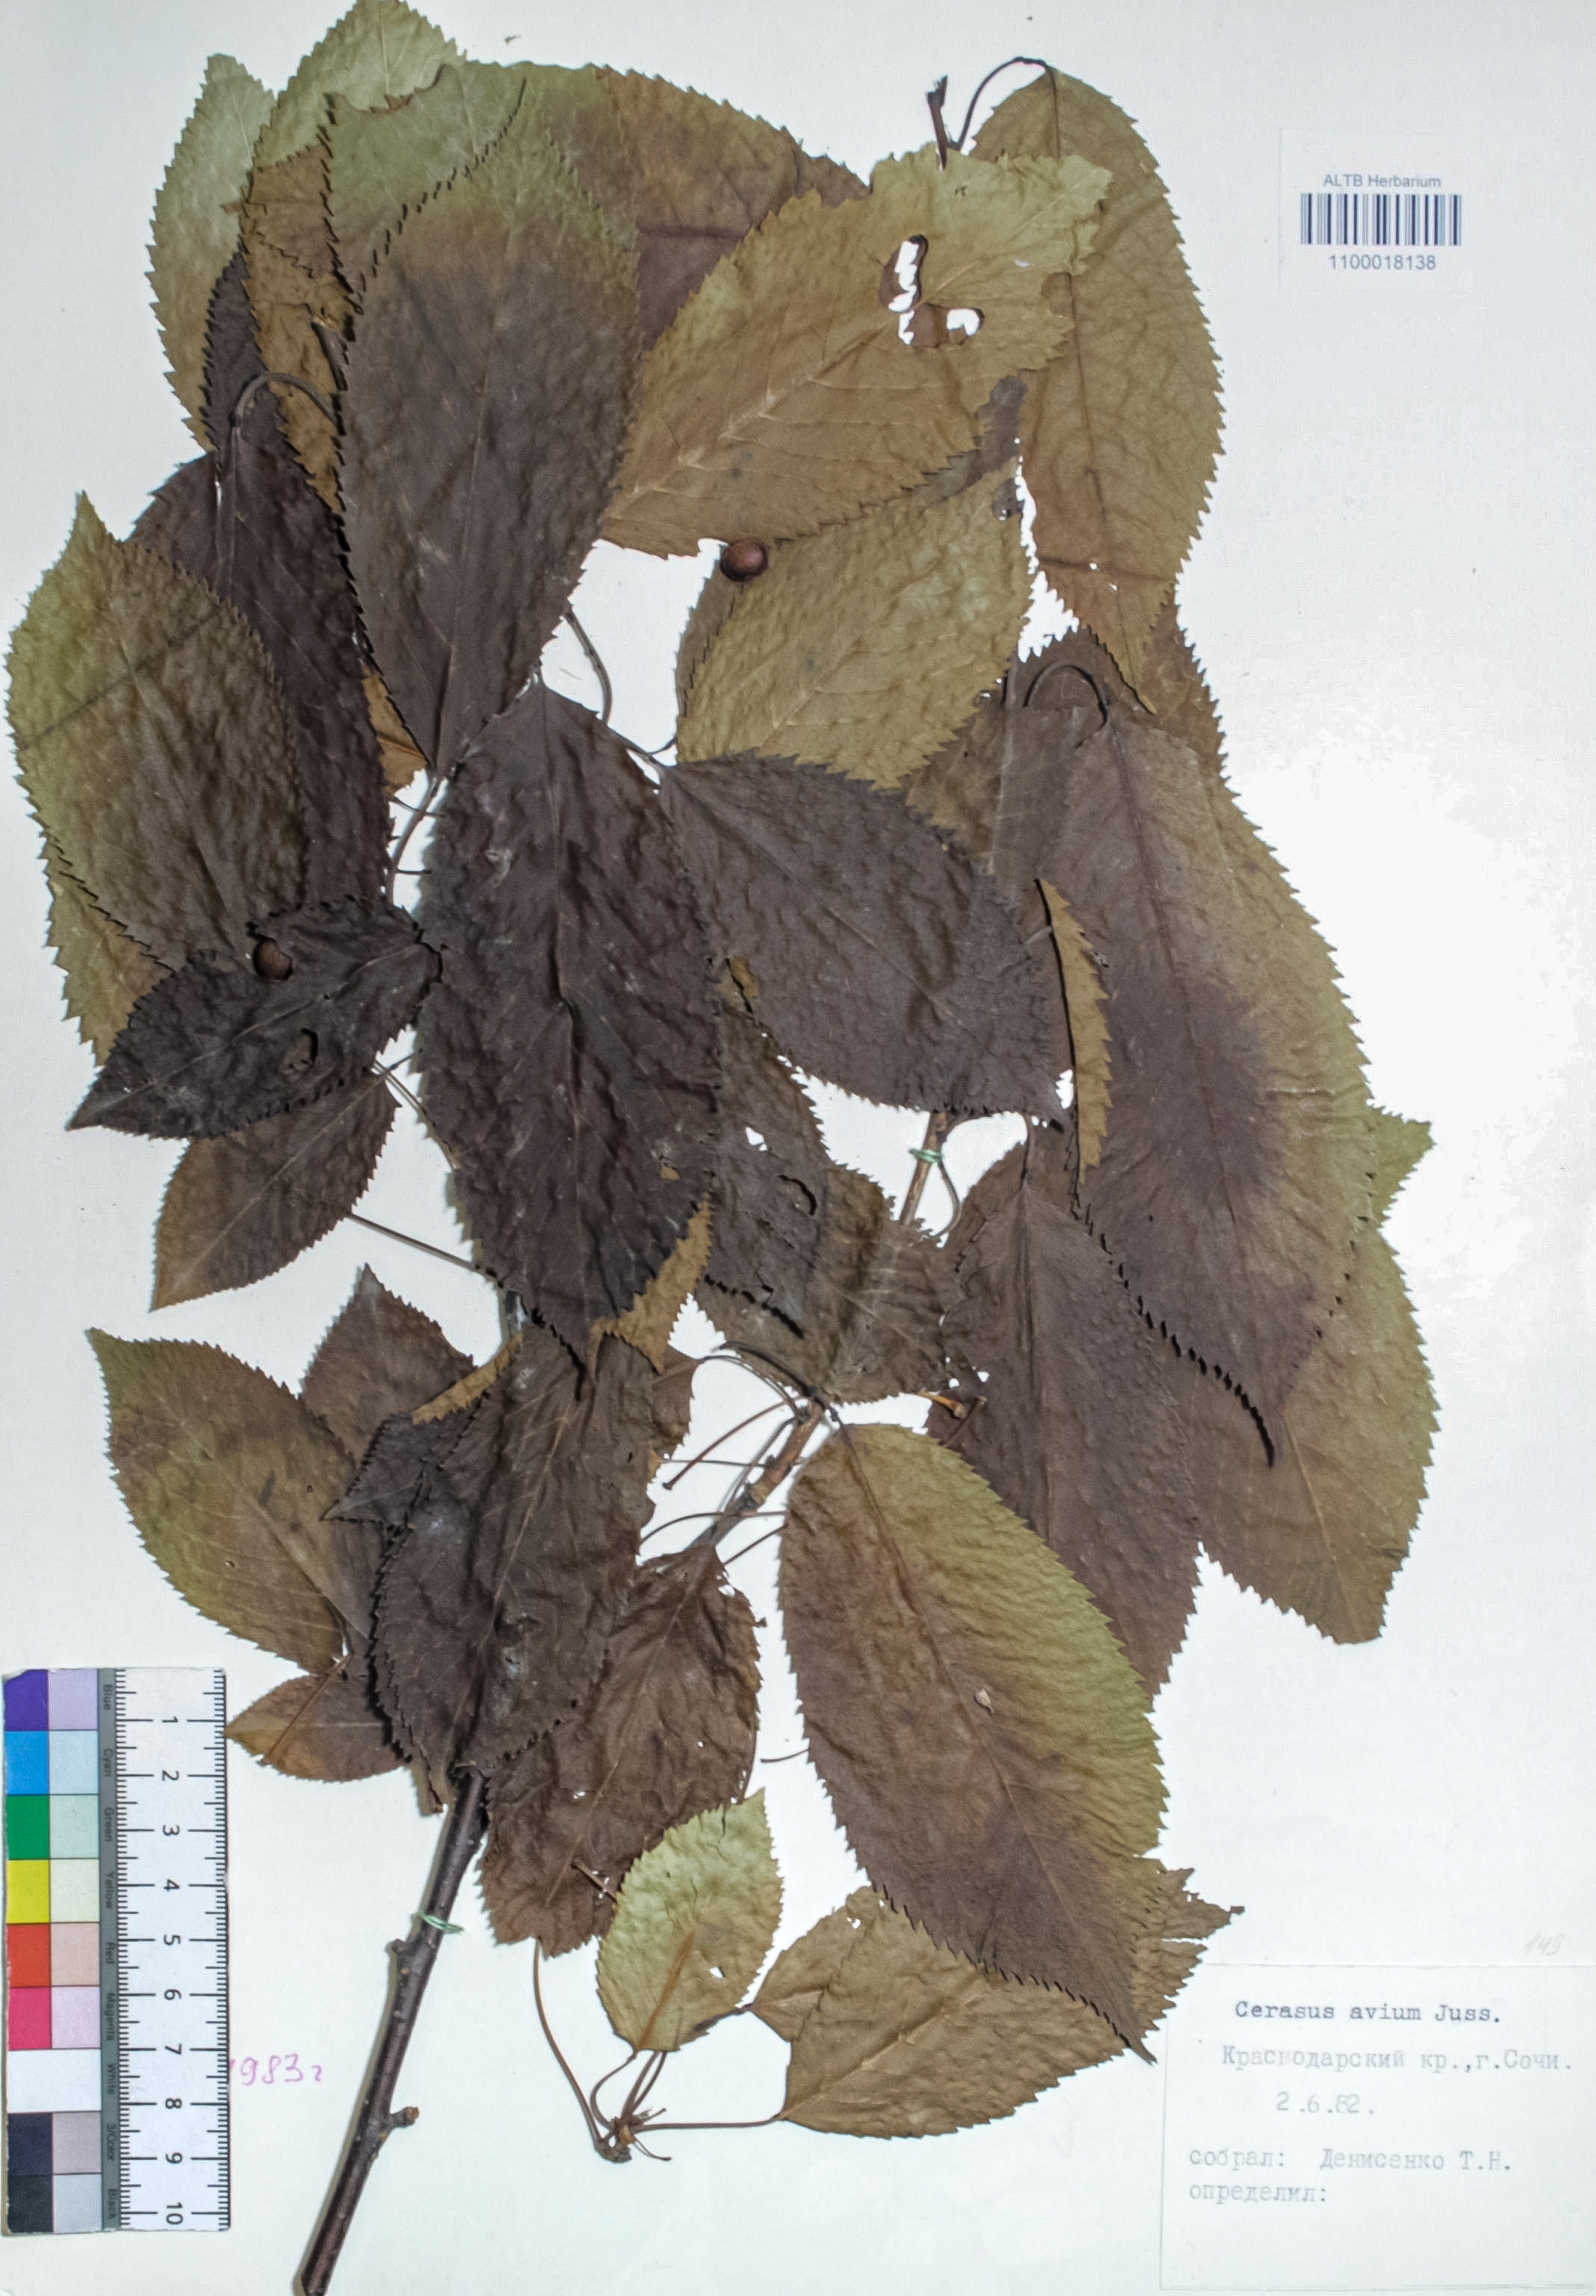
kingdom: Plantae
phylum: Tracheophyta
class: Magnoliopsida
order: Rosales
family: Rosaceae
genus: Prunus
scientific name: Prunus avium
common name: Sweet cherry
